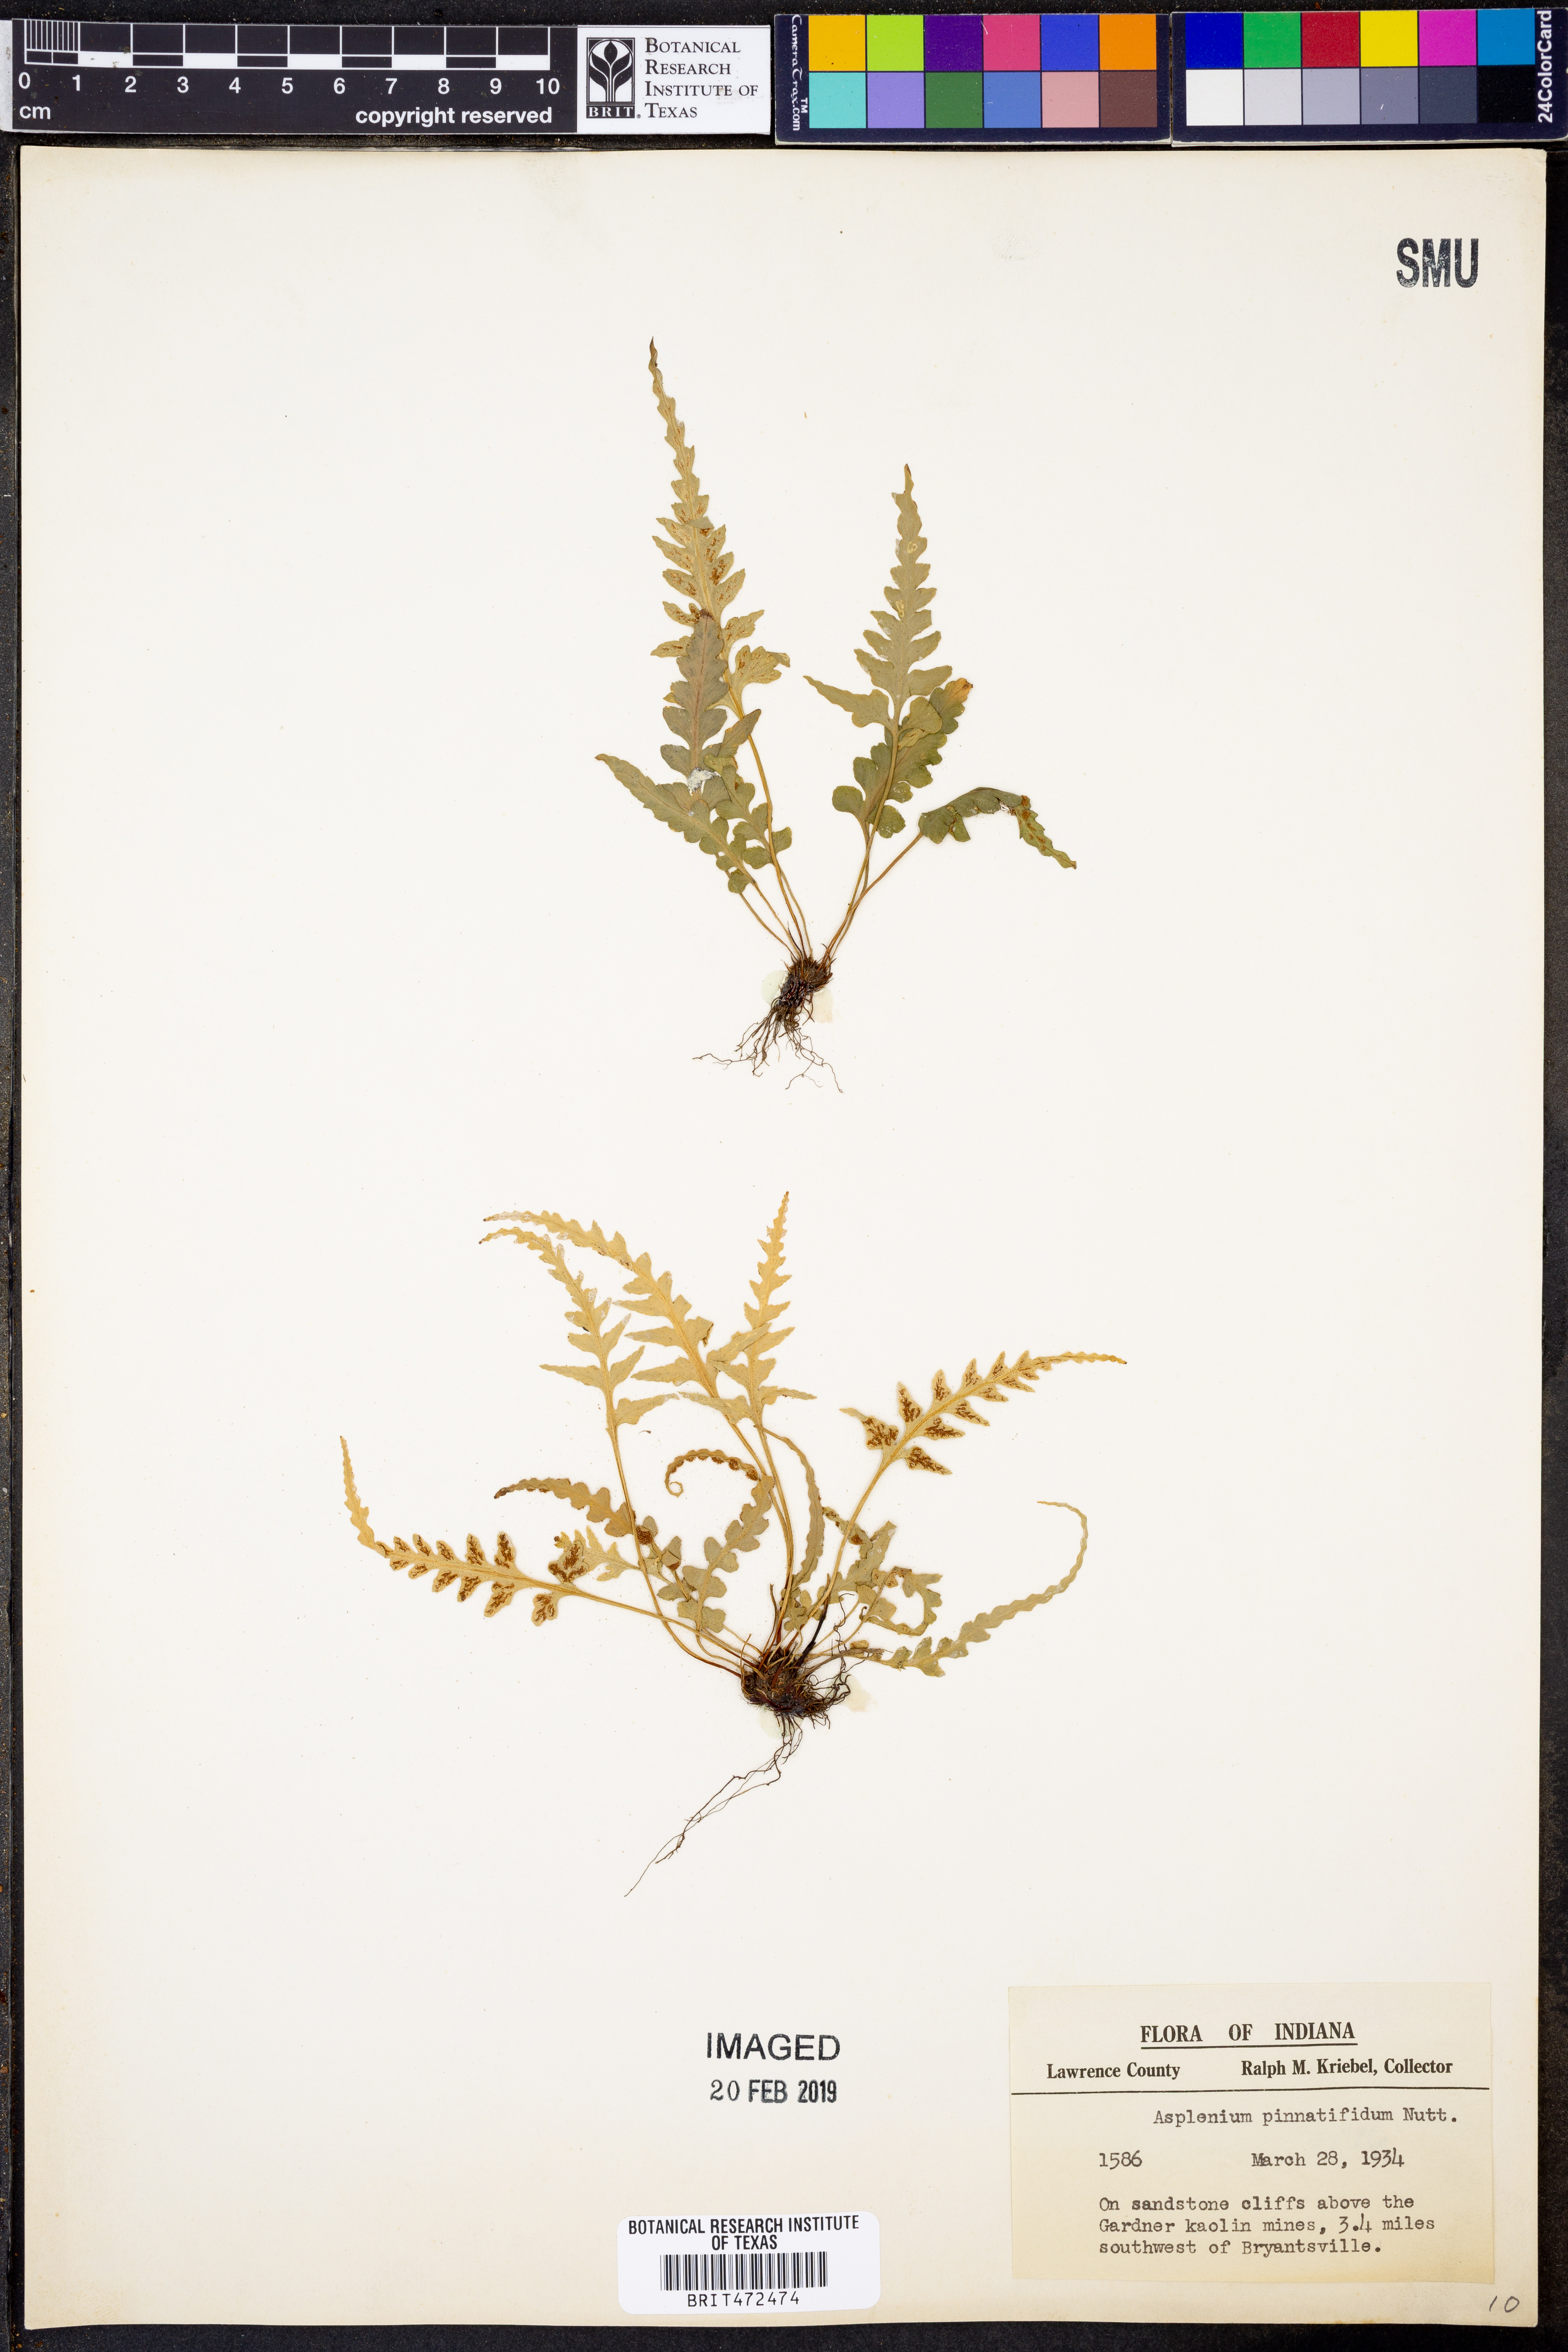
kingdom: Plantae
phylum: Tracheophyta
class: Polypodiopsida
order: Polypodiales
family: Aspleniaceae
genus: Asplenium
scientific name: Asplenium pinnatifidum
